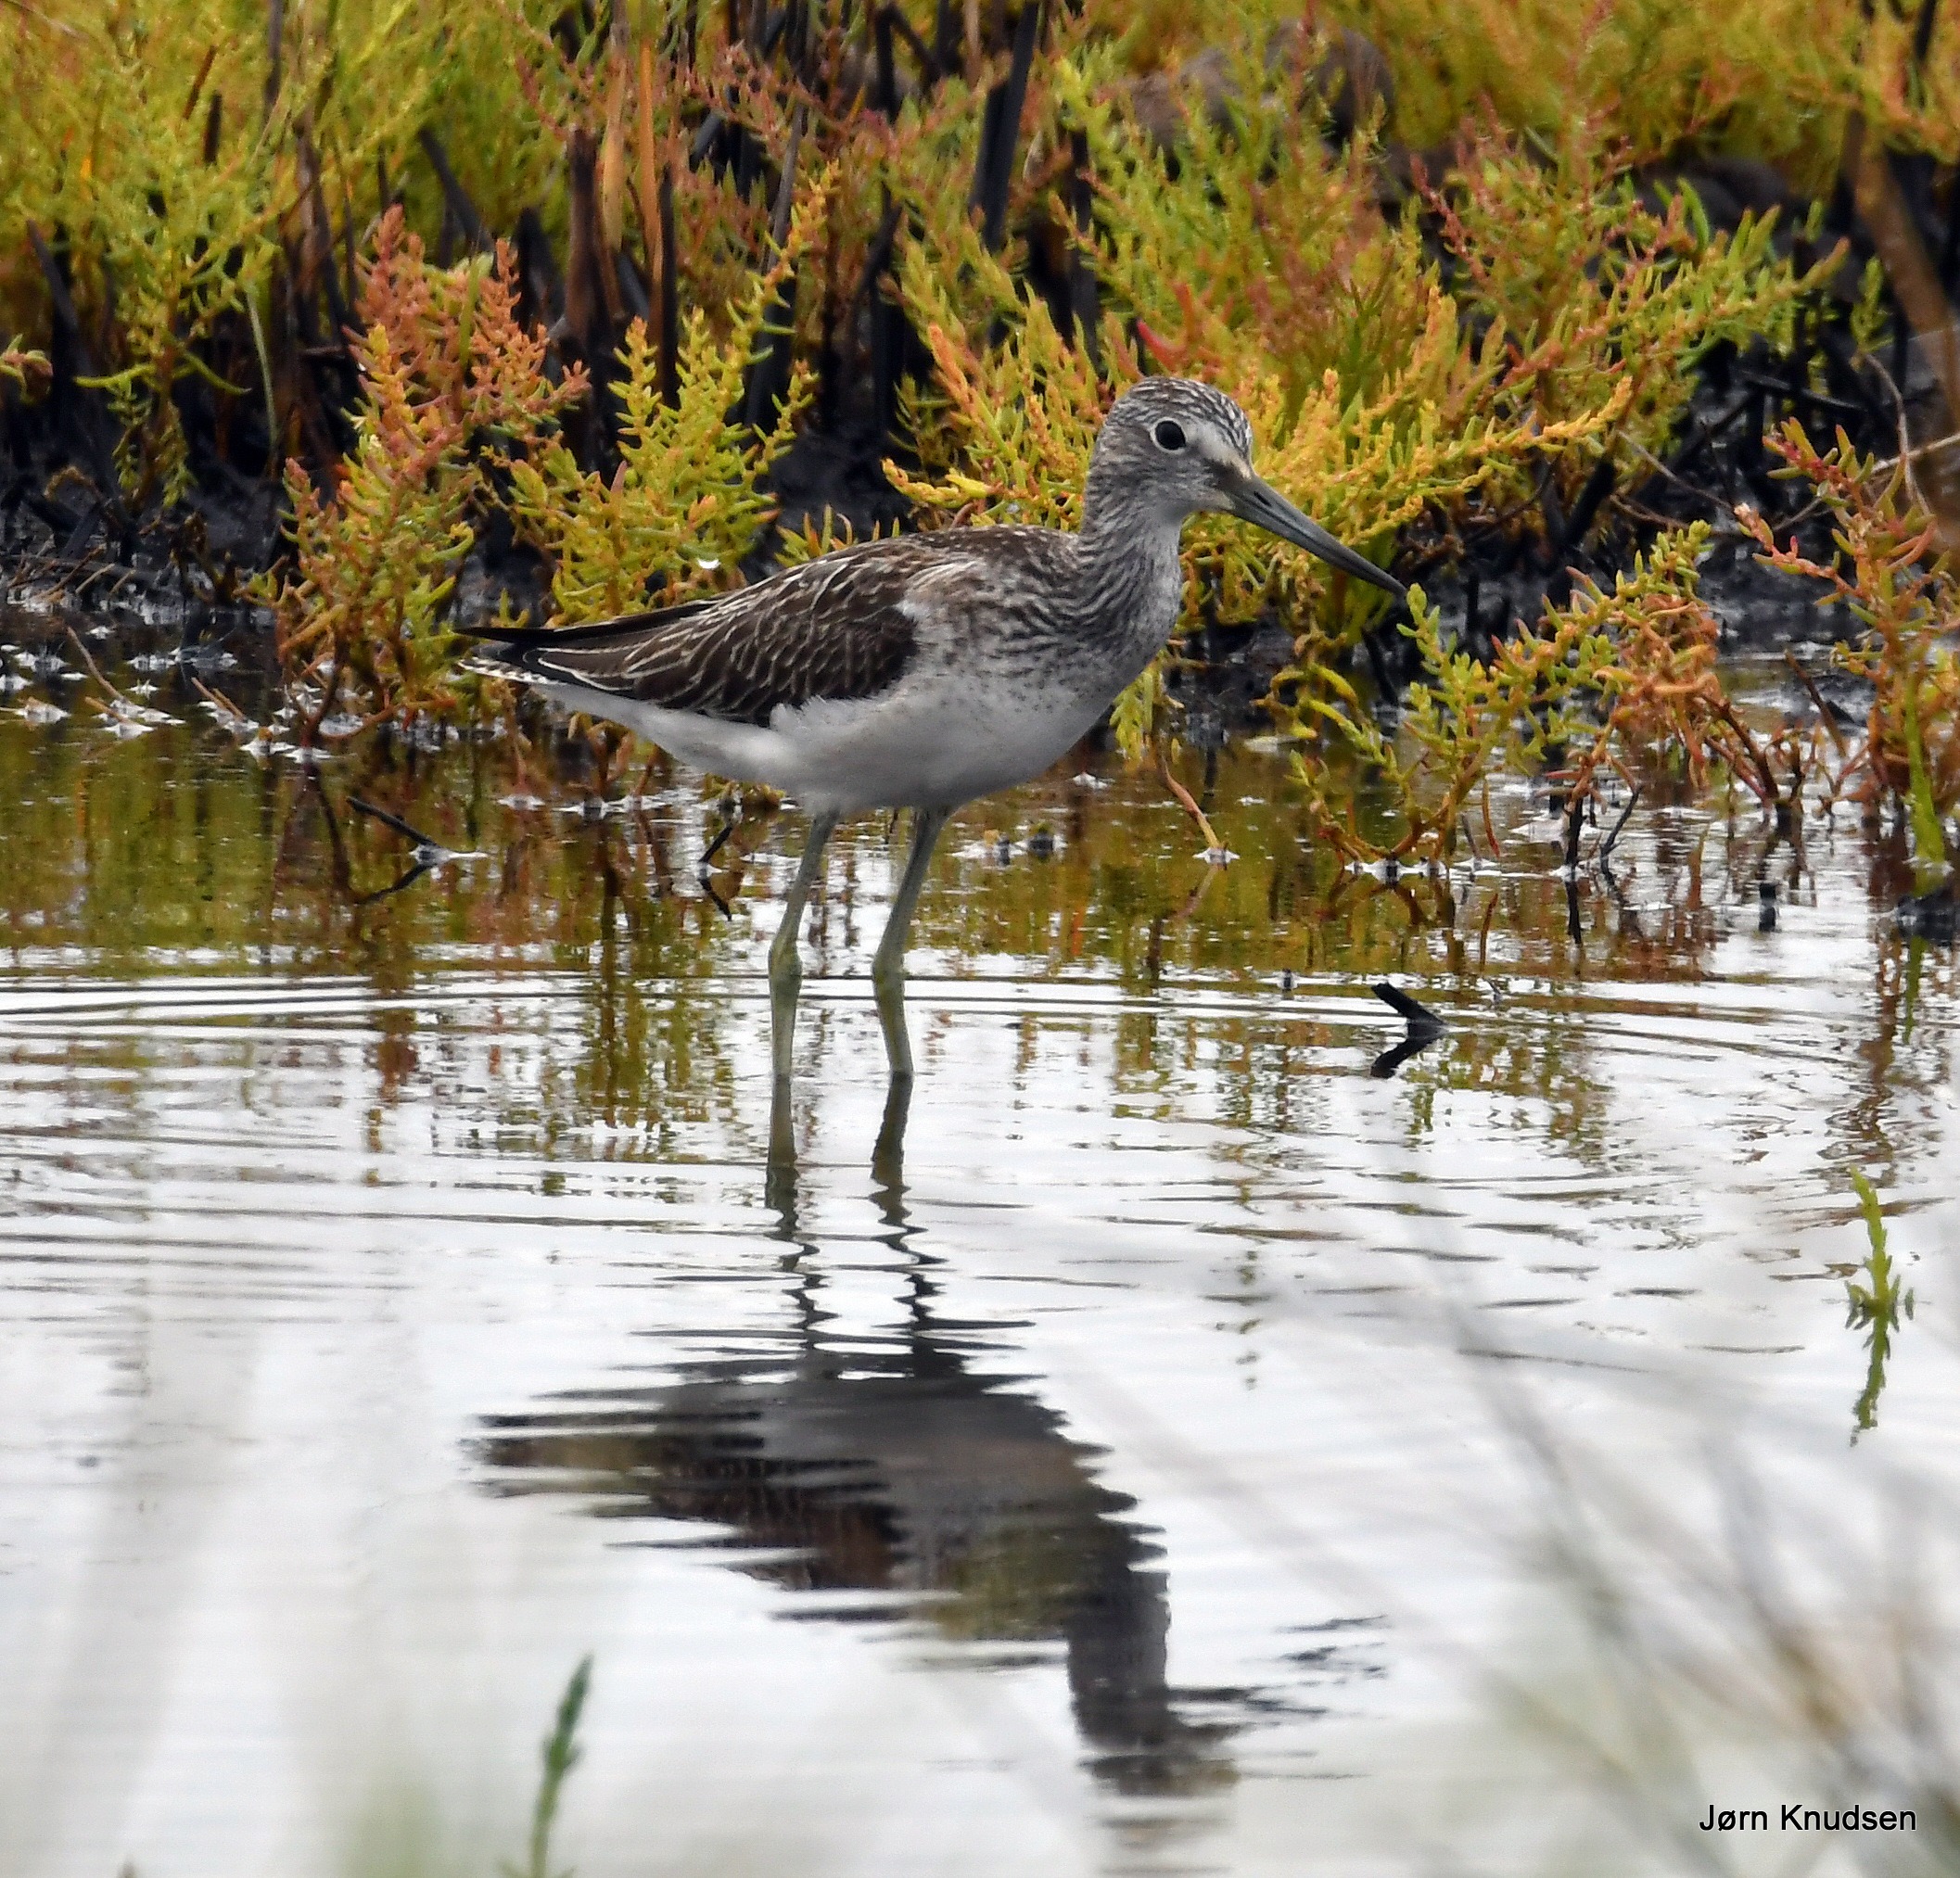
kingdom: Animalia
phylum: Chordata
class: Aves
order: Charadriiformes
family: Scolopacidae
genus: Tringa
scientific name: Tringa nebularia
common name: Hvidklire
